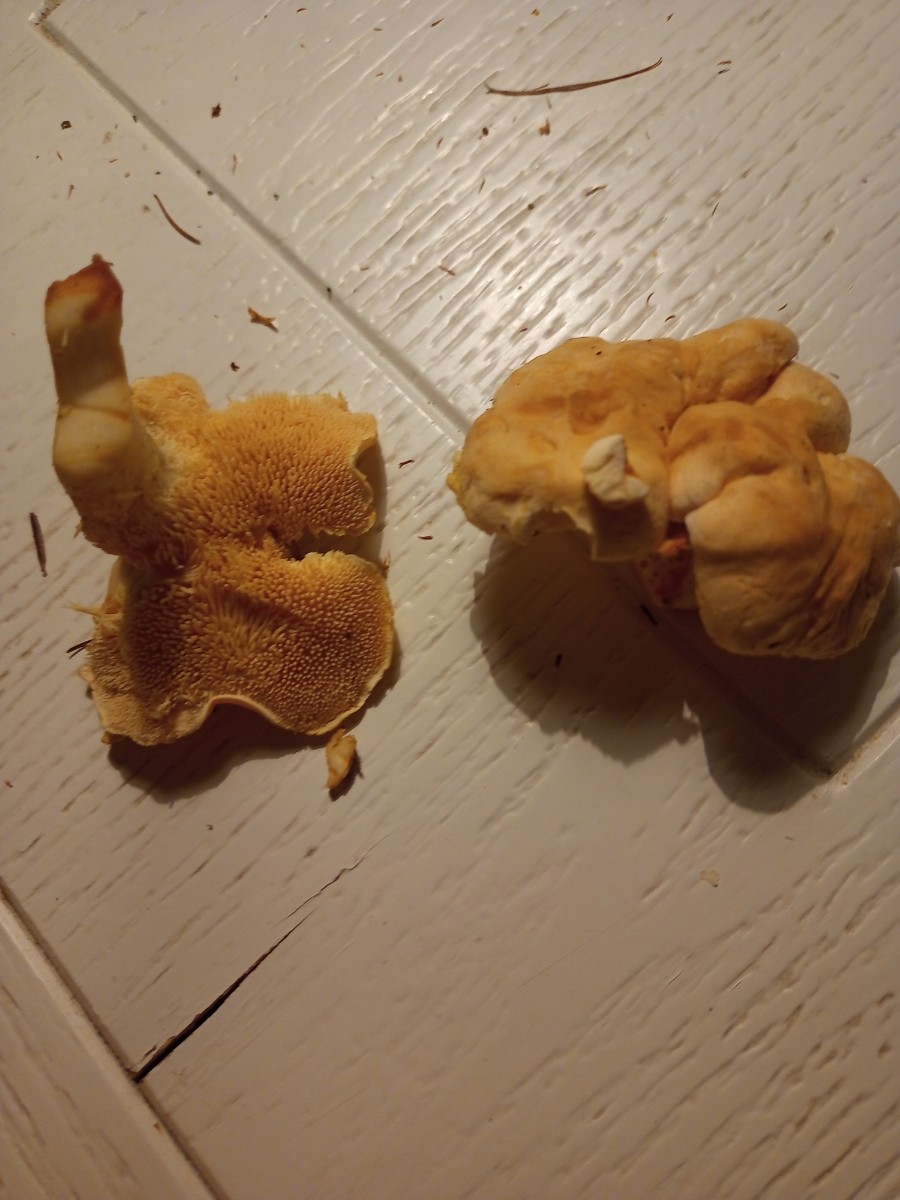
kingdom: Fungi
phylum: Basidiomycota
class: Agaricomycetes
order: Cantharellales
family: Hydnaceae
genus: Hydnum
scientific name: Hydnum
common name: pigsvamp
